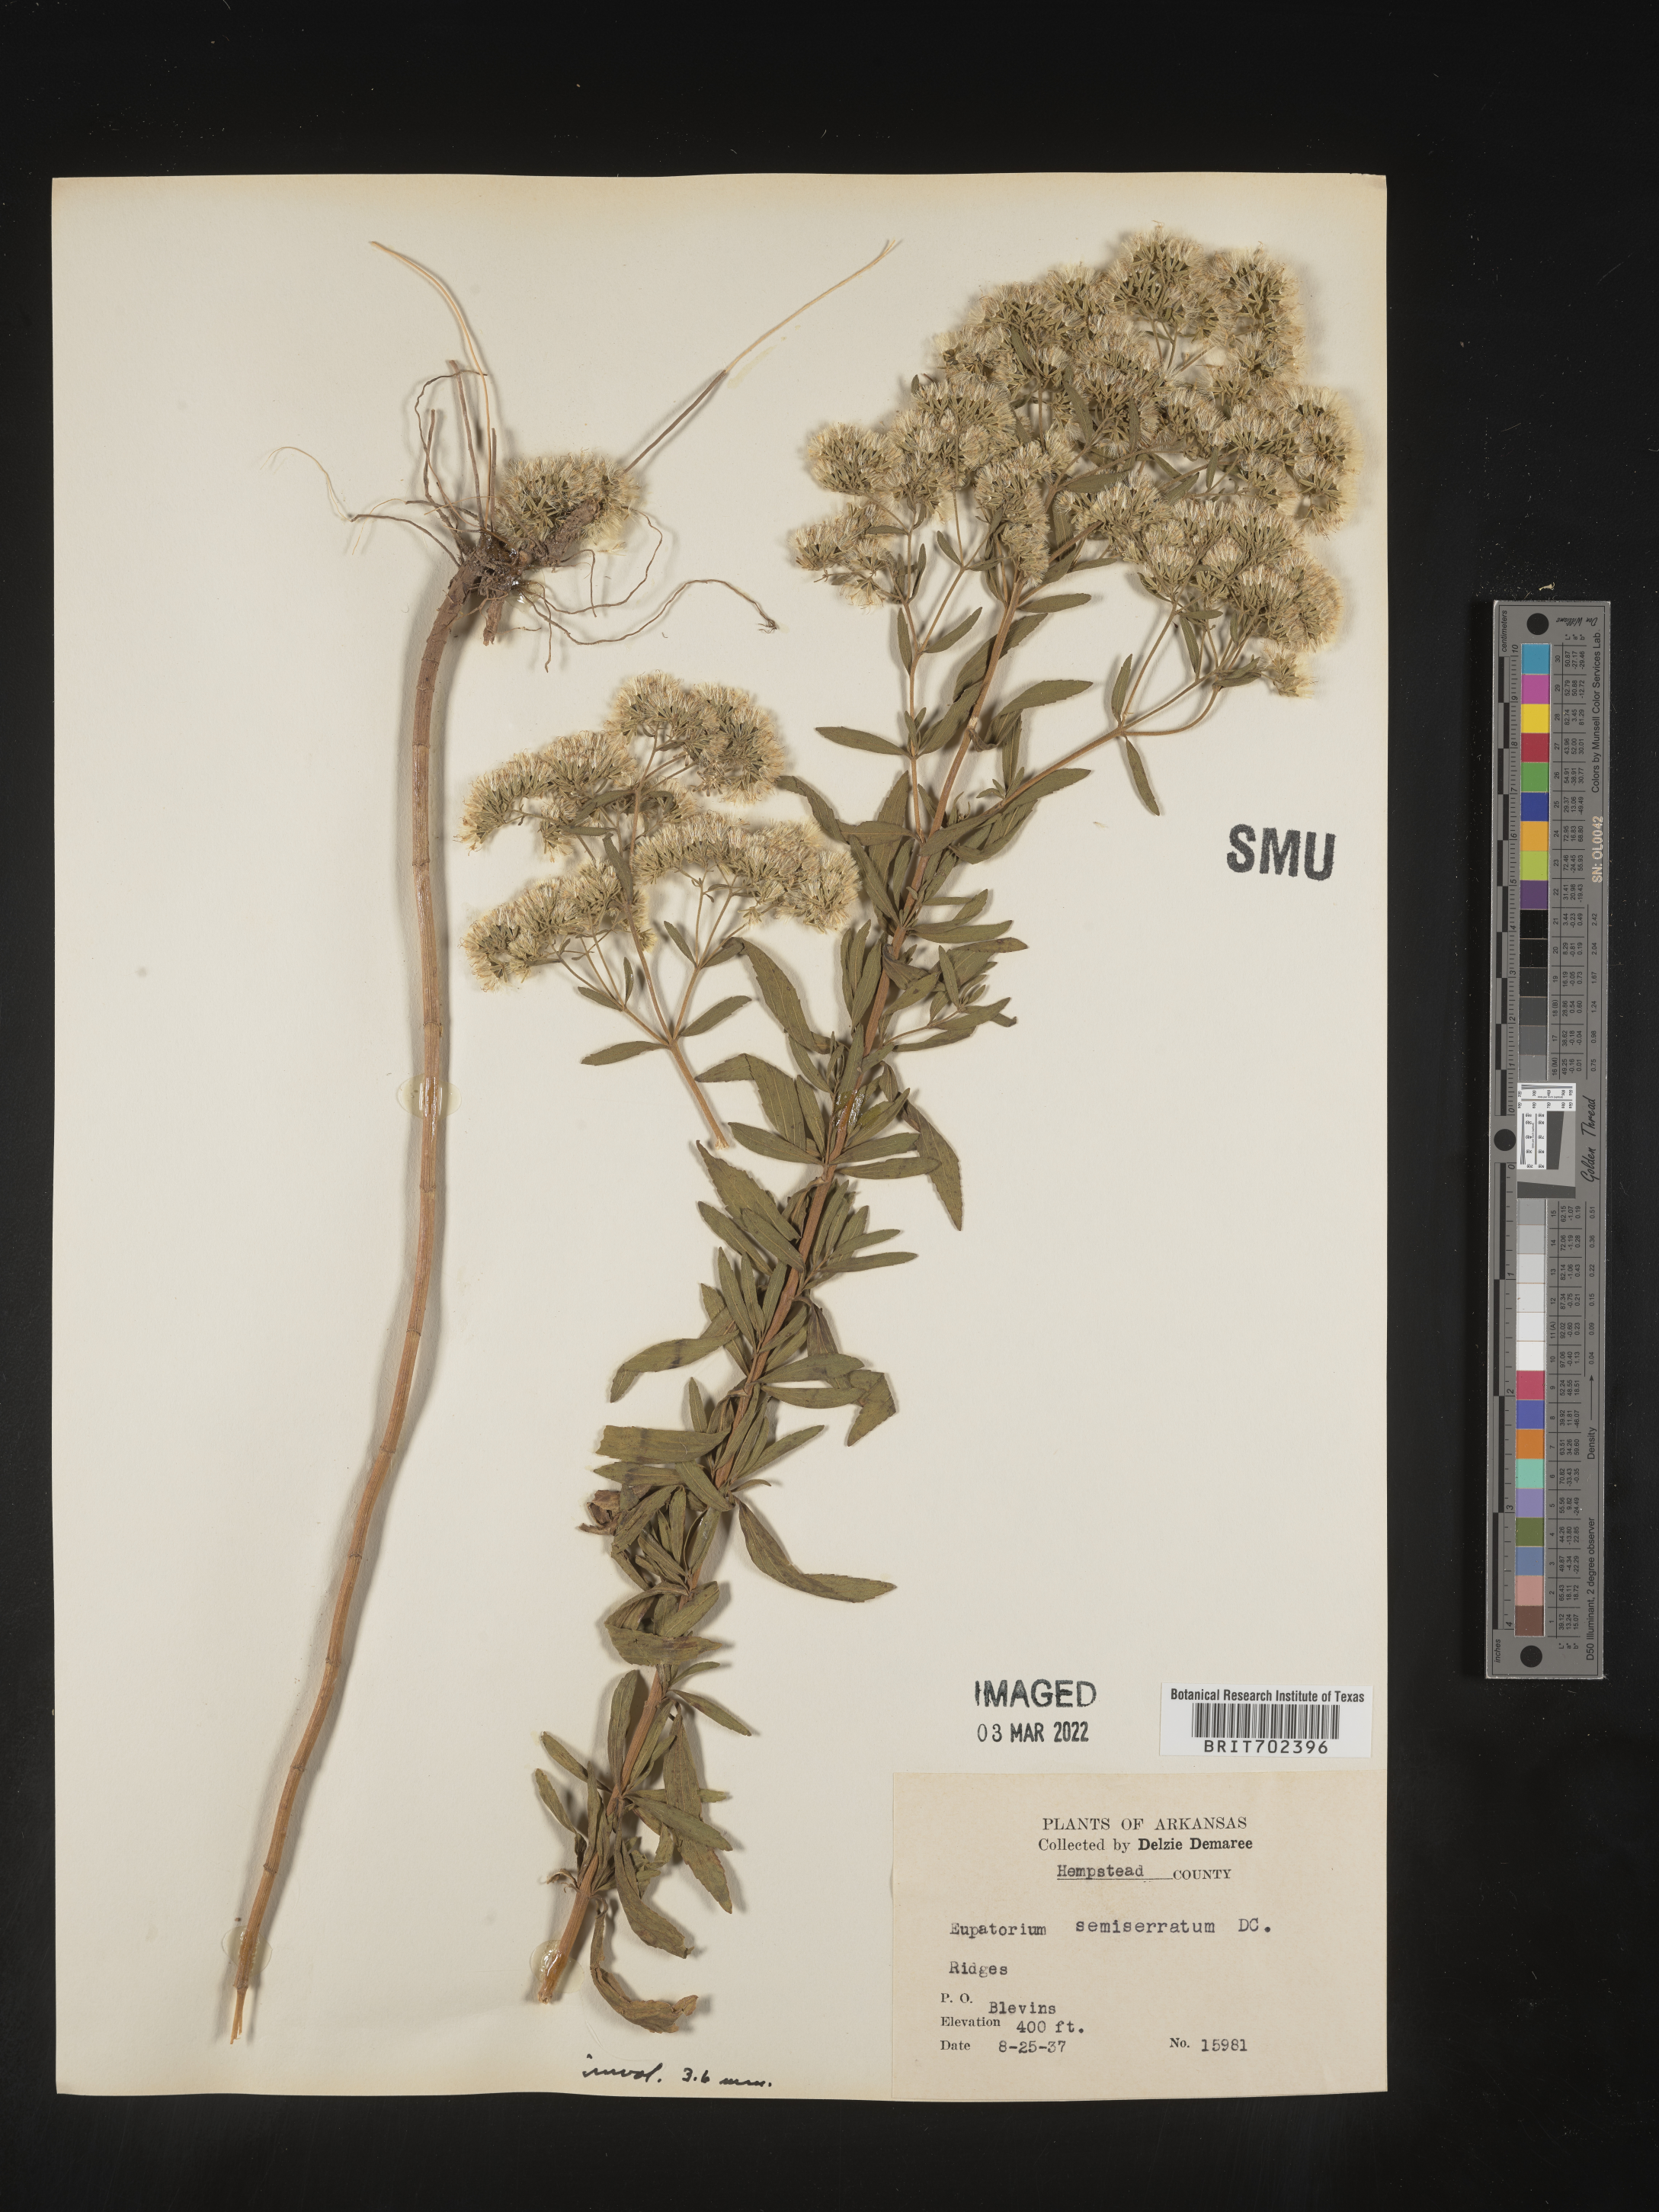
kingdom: Plantae
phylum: Tracheophyta
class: Magnoliopsida
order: Asterales
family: Asteraceae
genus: Eupatorium
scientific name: Eupatorium semiserratum
